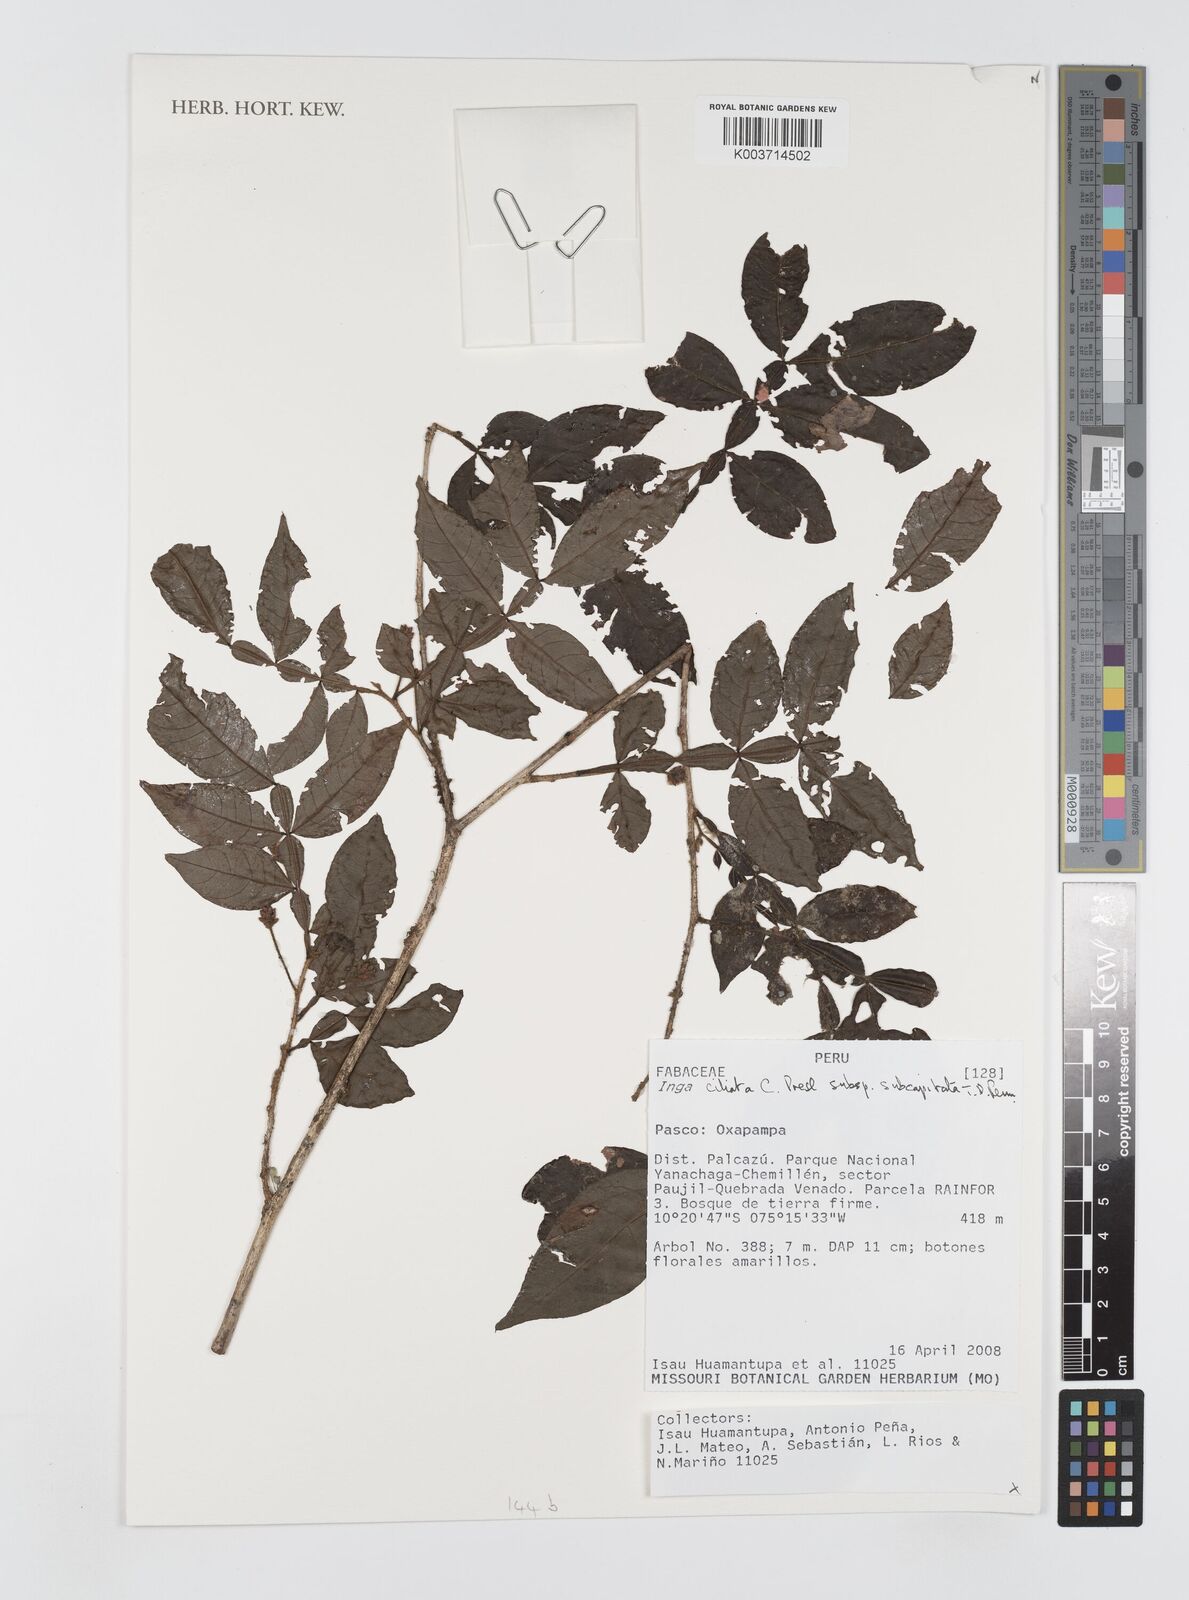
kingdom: Plantae
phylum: Tracheophyta
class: Magnoliopsida
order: Fabales
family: Fabaceae
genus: Inga
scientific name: Inga ciliata
